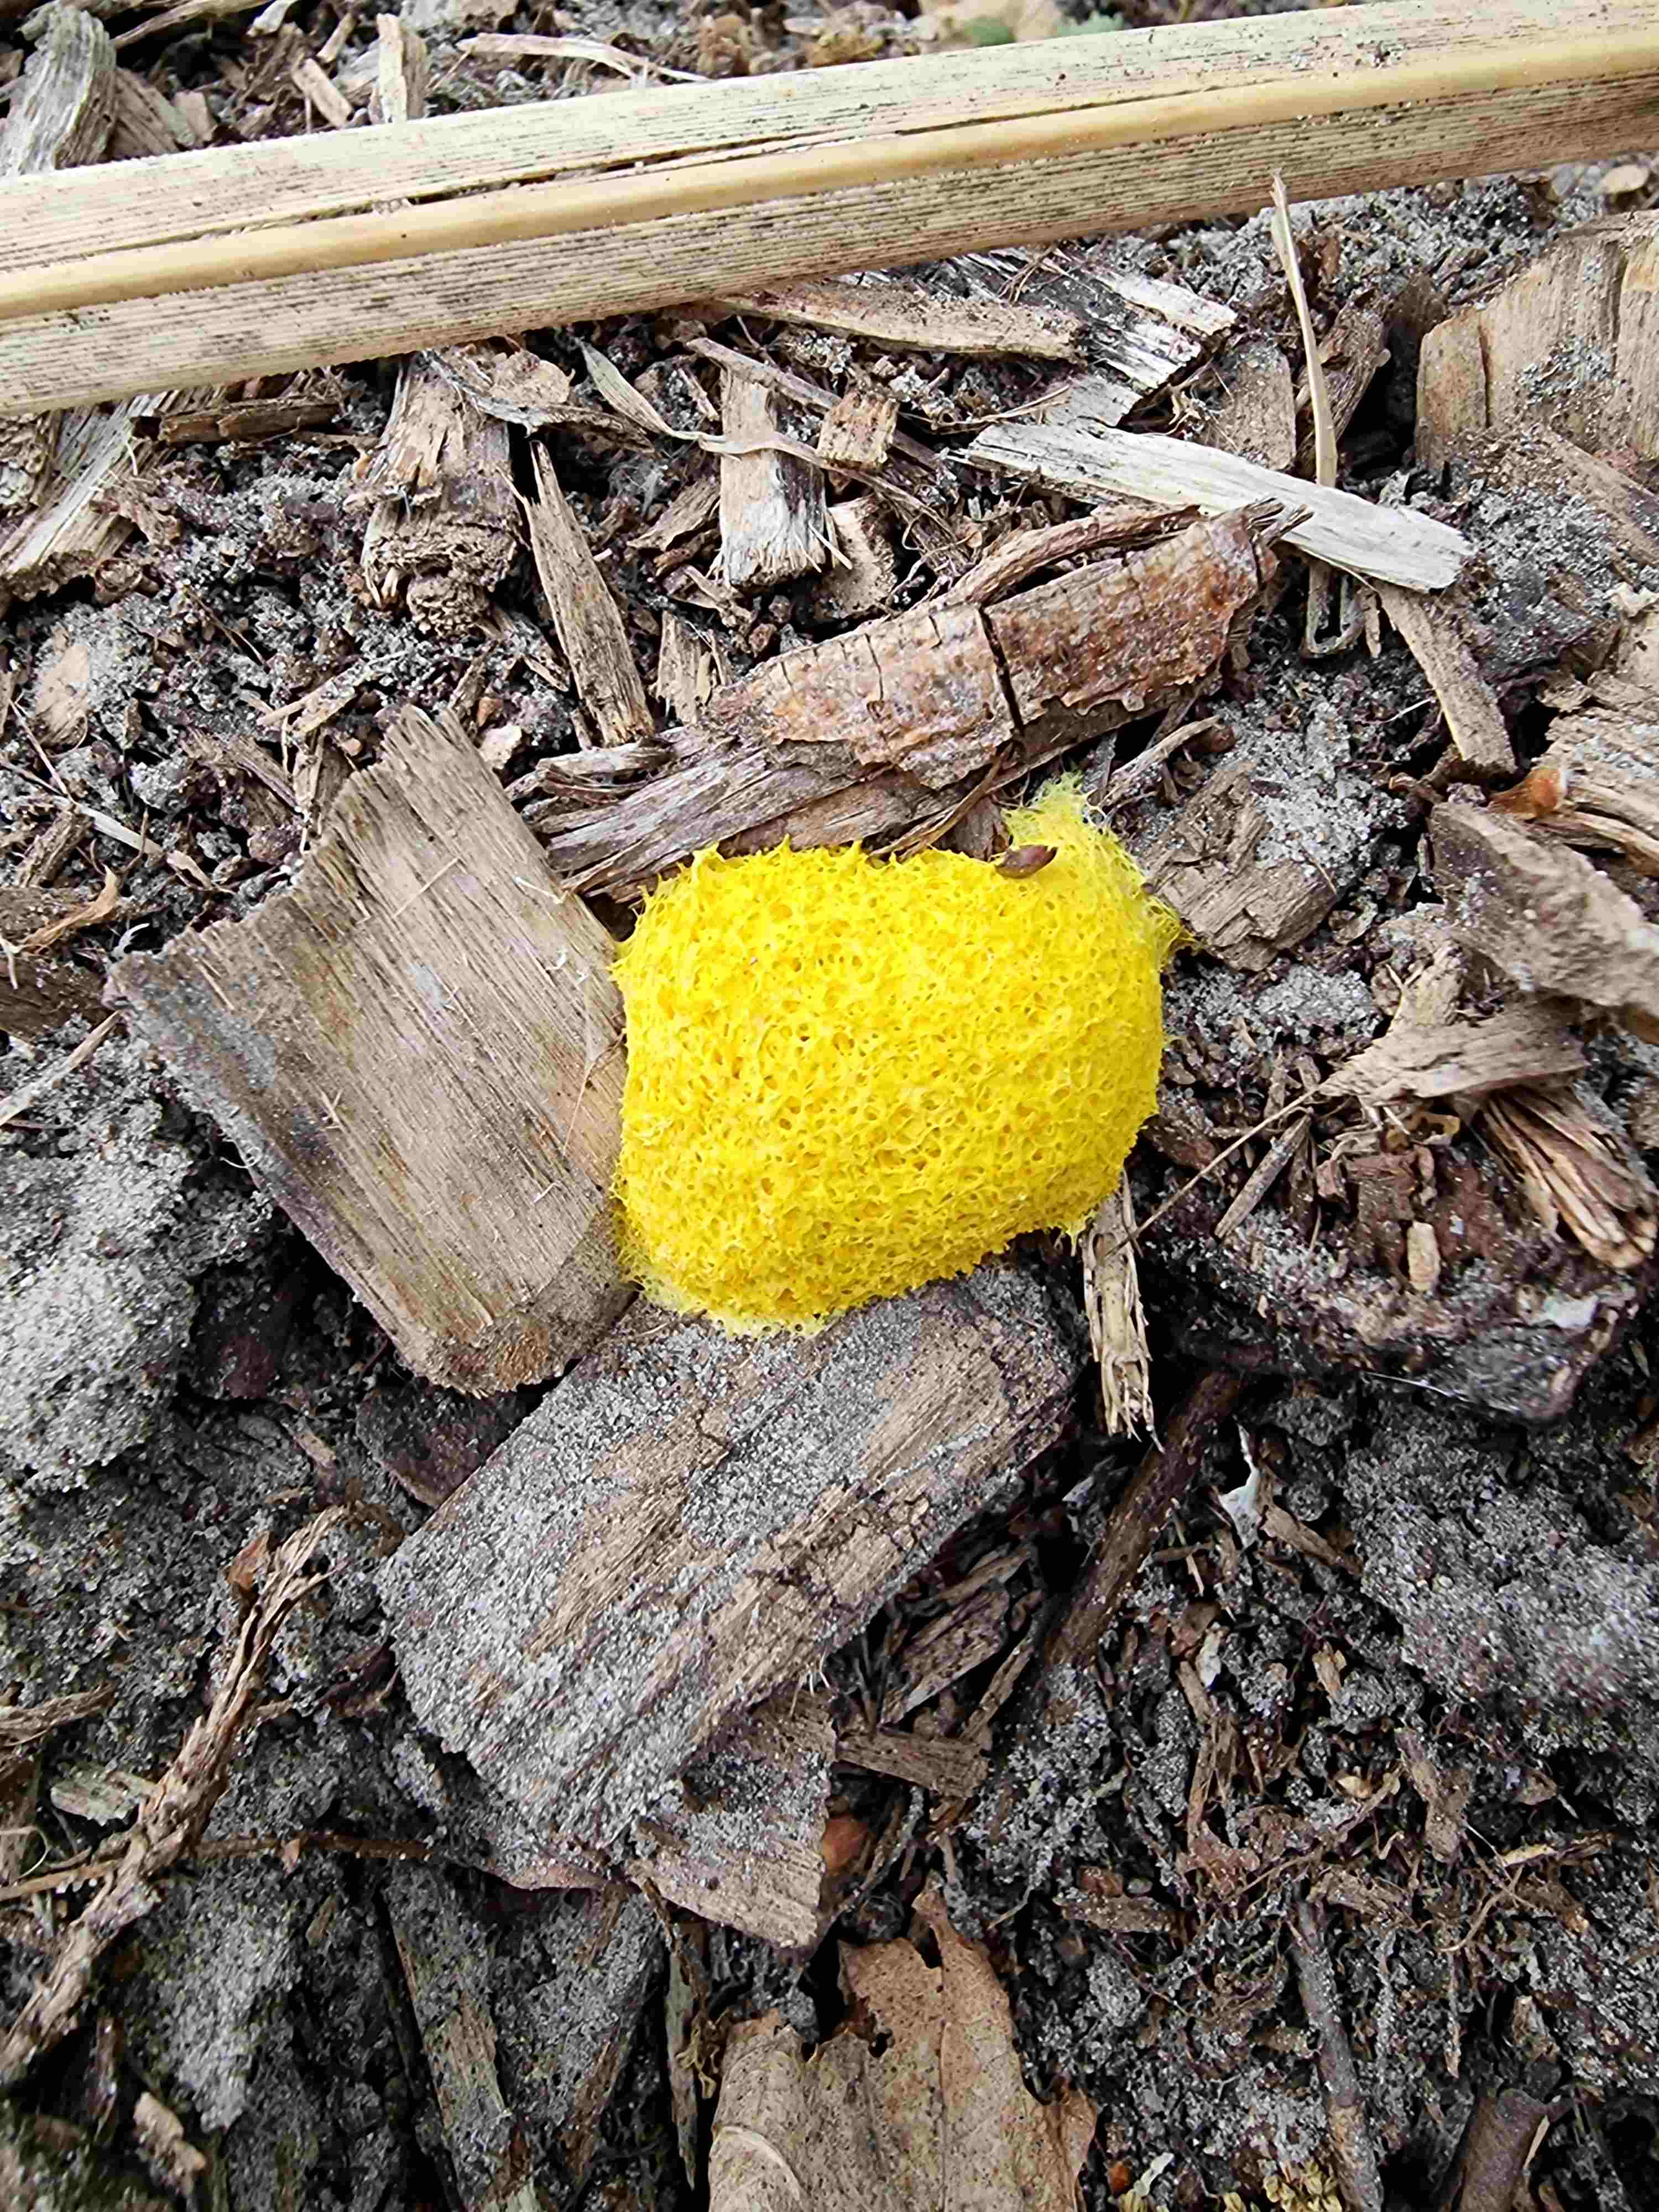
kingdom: Protozoa
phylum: Mycetozoa
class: Myxomycetes
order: Physarales
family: Physaraceae
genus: Fuligo
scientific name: Fuligo septica
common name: gul troldsmør
